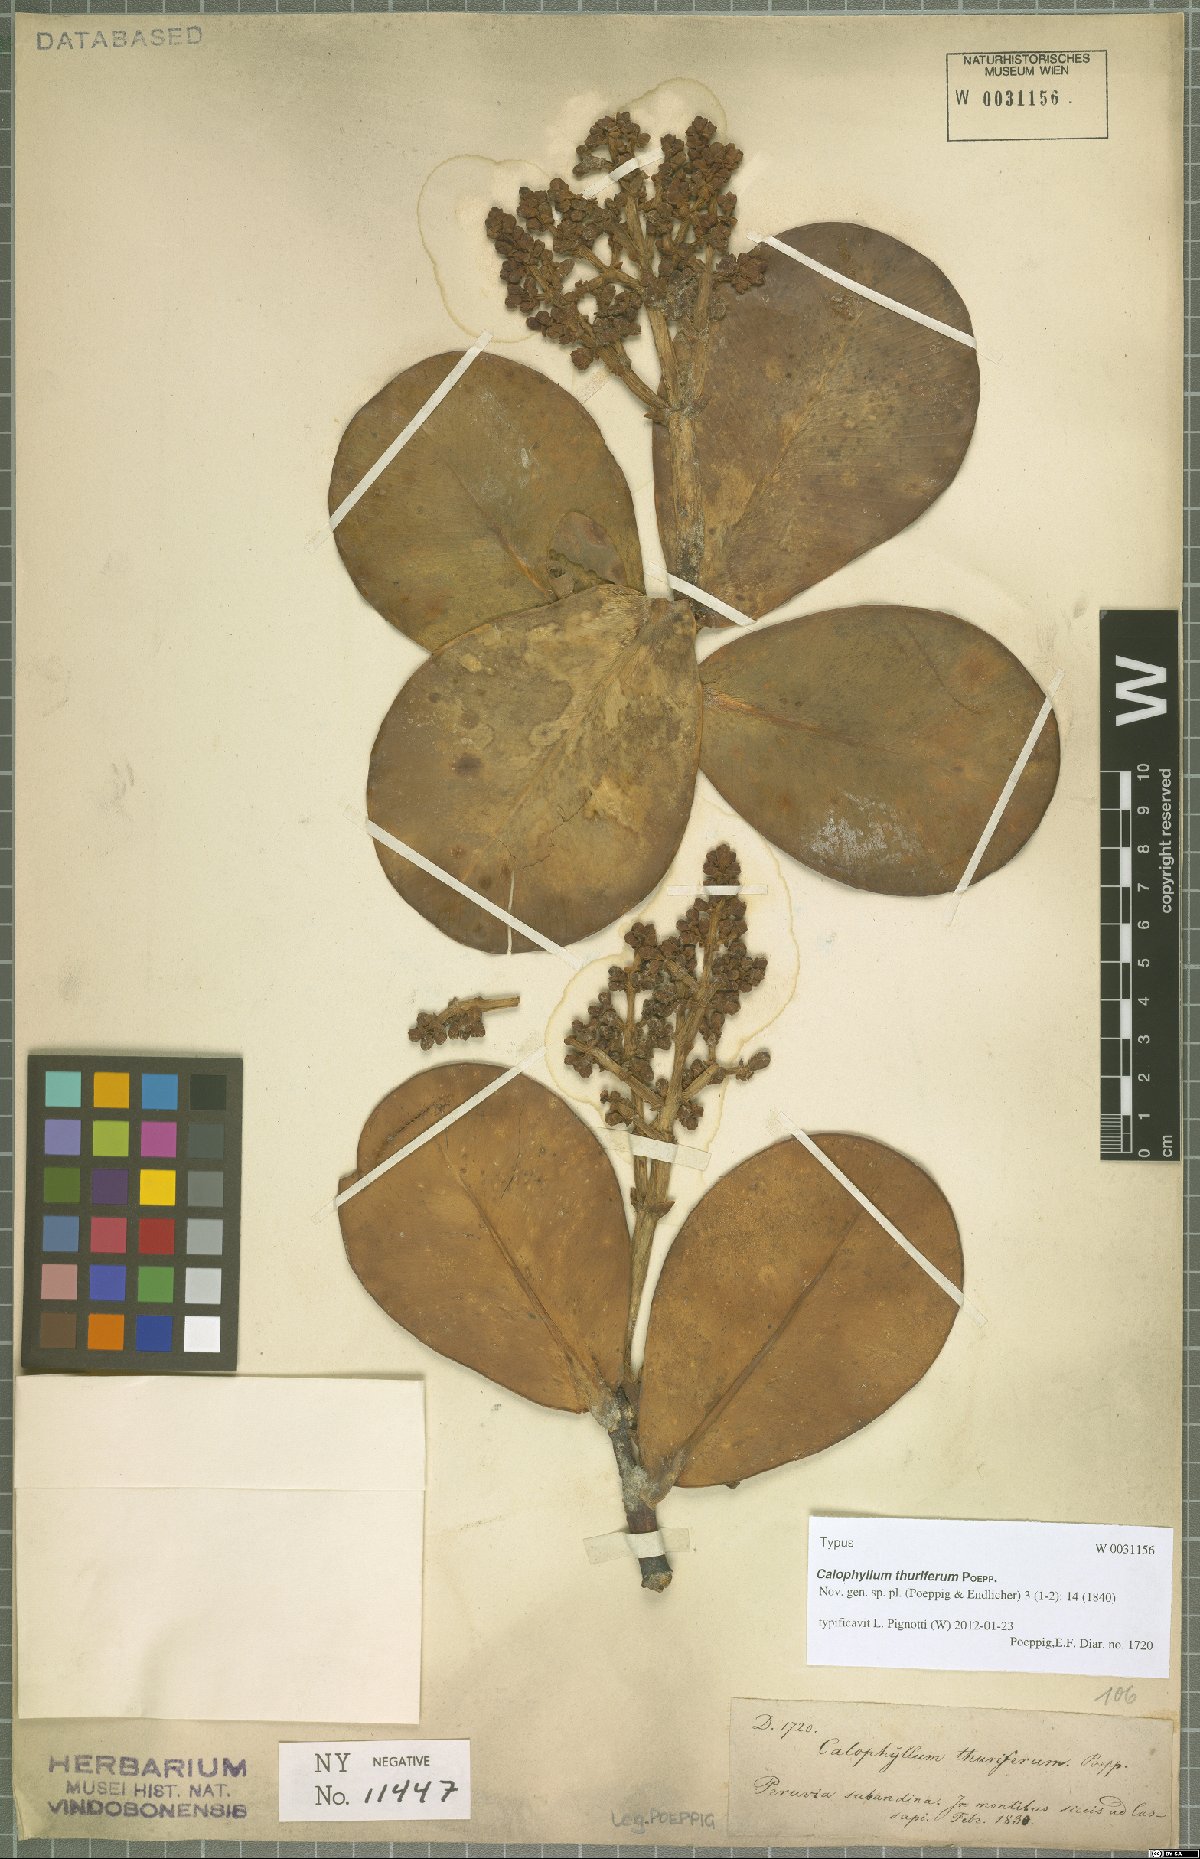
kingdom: Plantae
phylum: Tracheophyta
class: Magnoliopsida
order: Malpighiales
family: Clusiaceae
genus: Clusia
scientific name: Clusia thurifera
